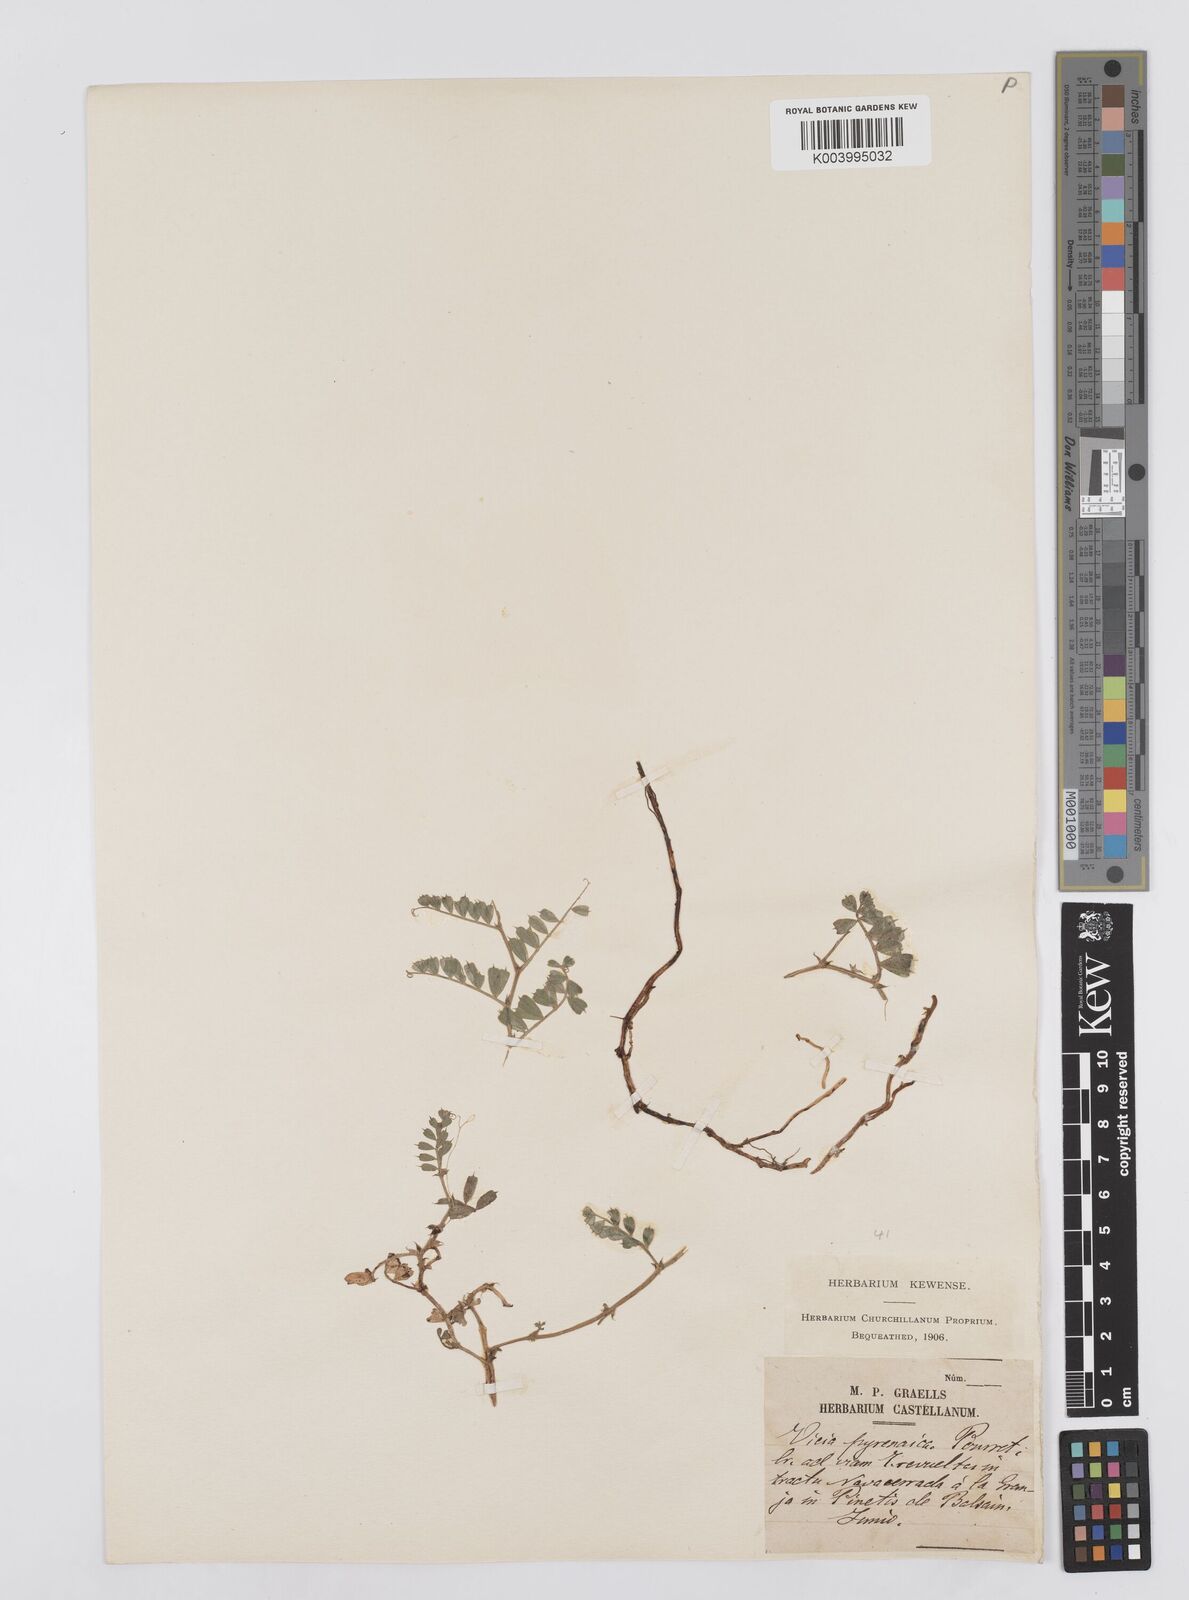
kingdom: Plantae
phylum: Tracheophyta
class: Magnoliopsida
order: Fabales
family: Fabaceae
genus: Vicia
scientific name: Vicia pyrenaica
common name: Pyrenean vetch
